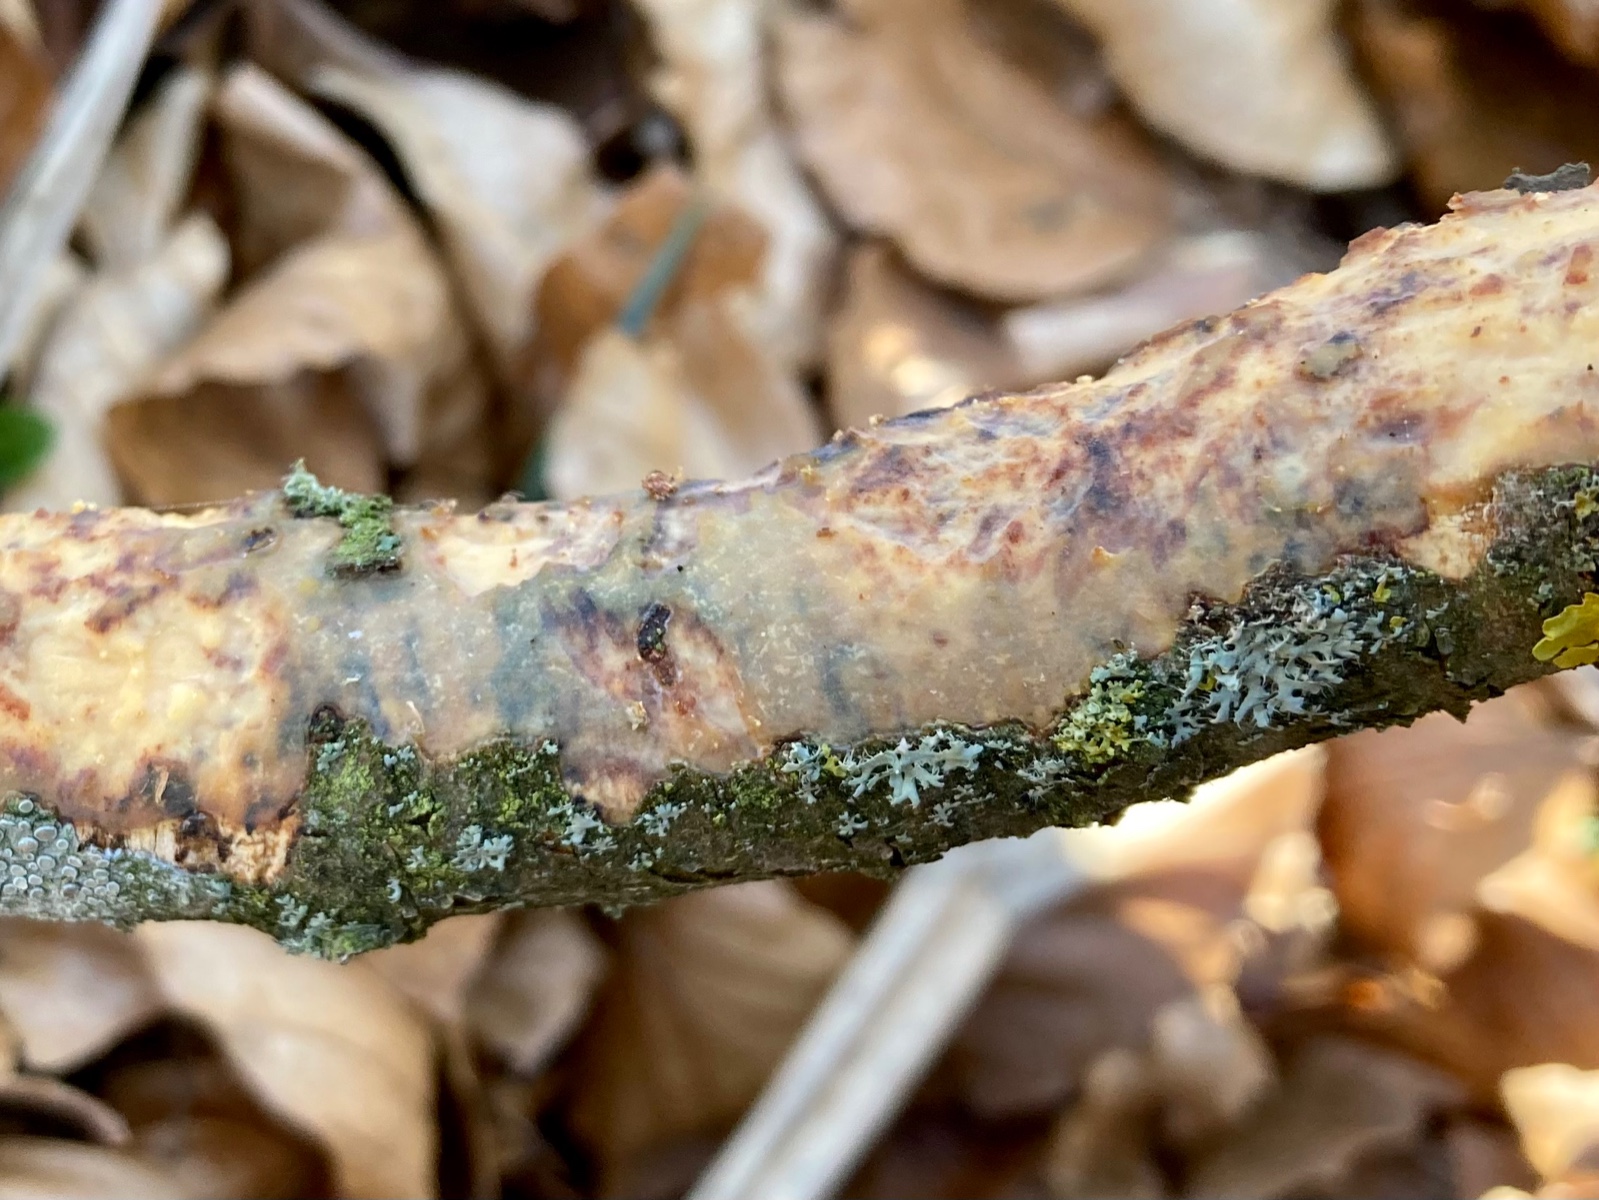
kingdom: Fungi
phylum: Basidiomycota
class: Agaricomycetes
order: Corticiales
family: Vuilleminiaceae
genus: Vuilleminia
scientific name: Vuilleminia comedens
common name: almindelig barksprænger
